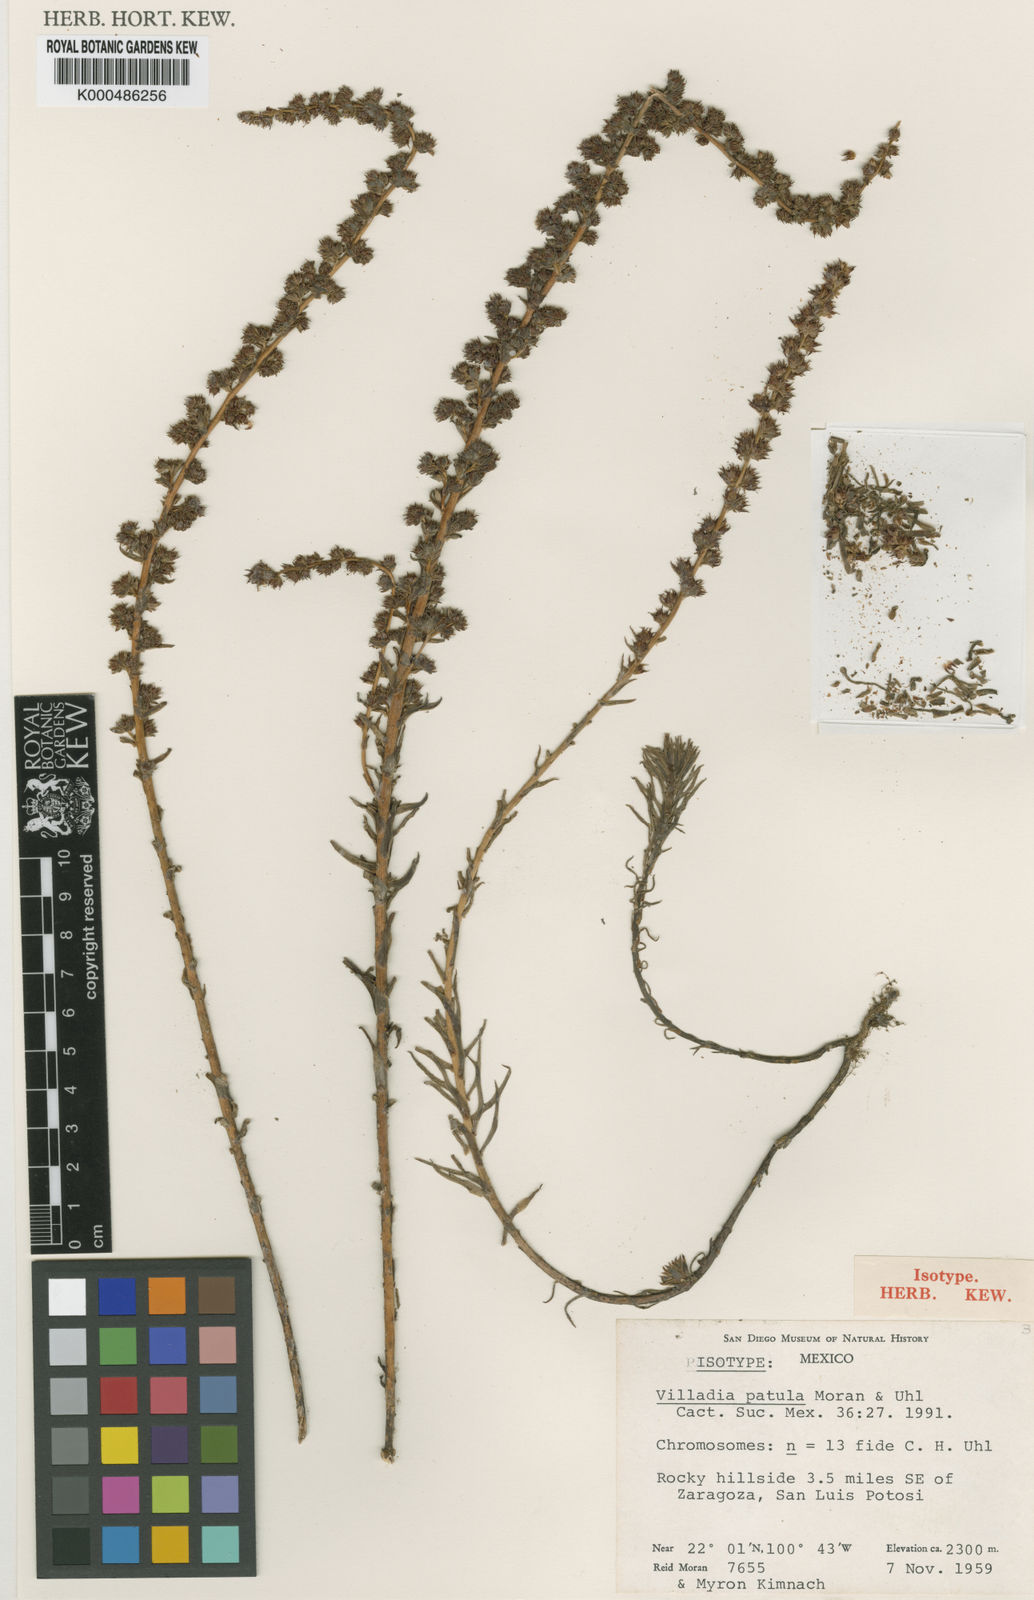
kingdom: Plantae
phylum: Tracheophyta
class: Magnoliopsida
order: Saxifragales
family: Crassulaceae
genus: Villadia
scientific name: Villadia patula
